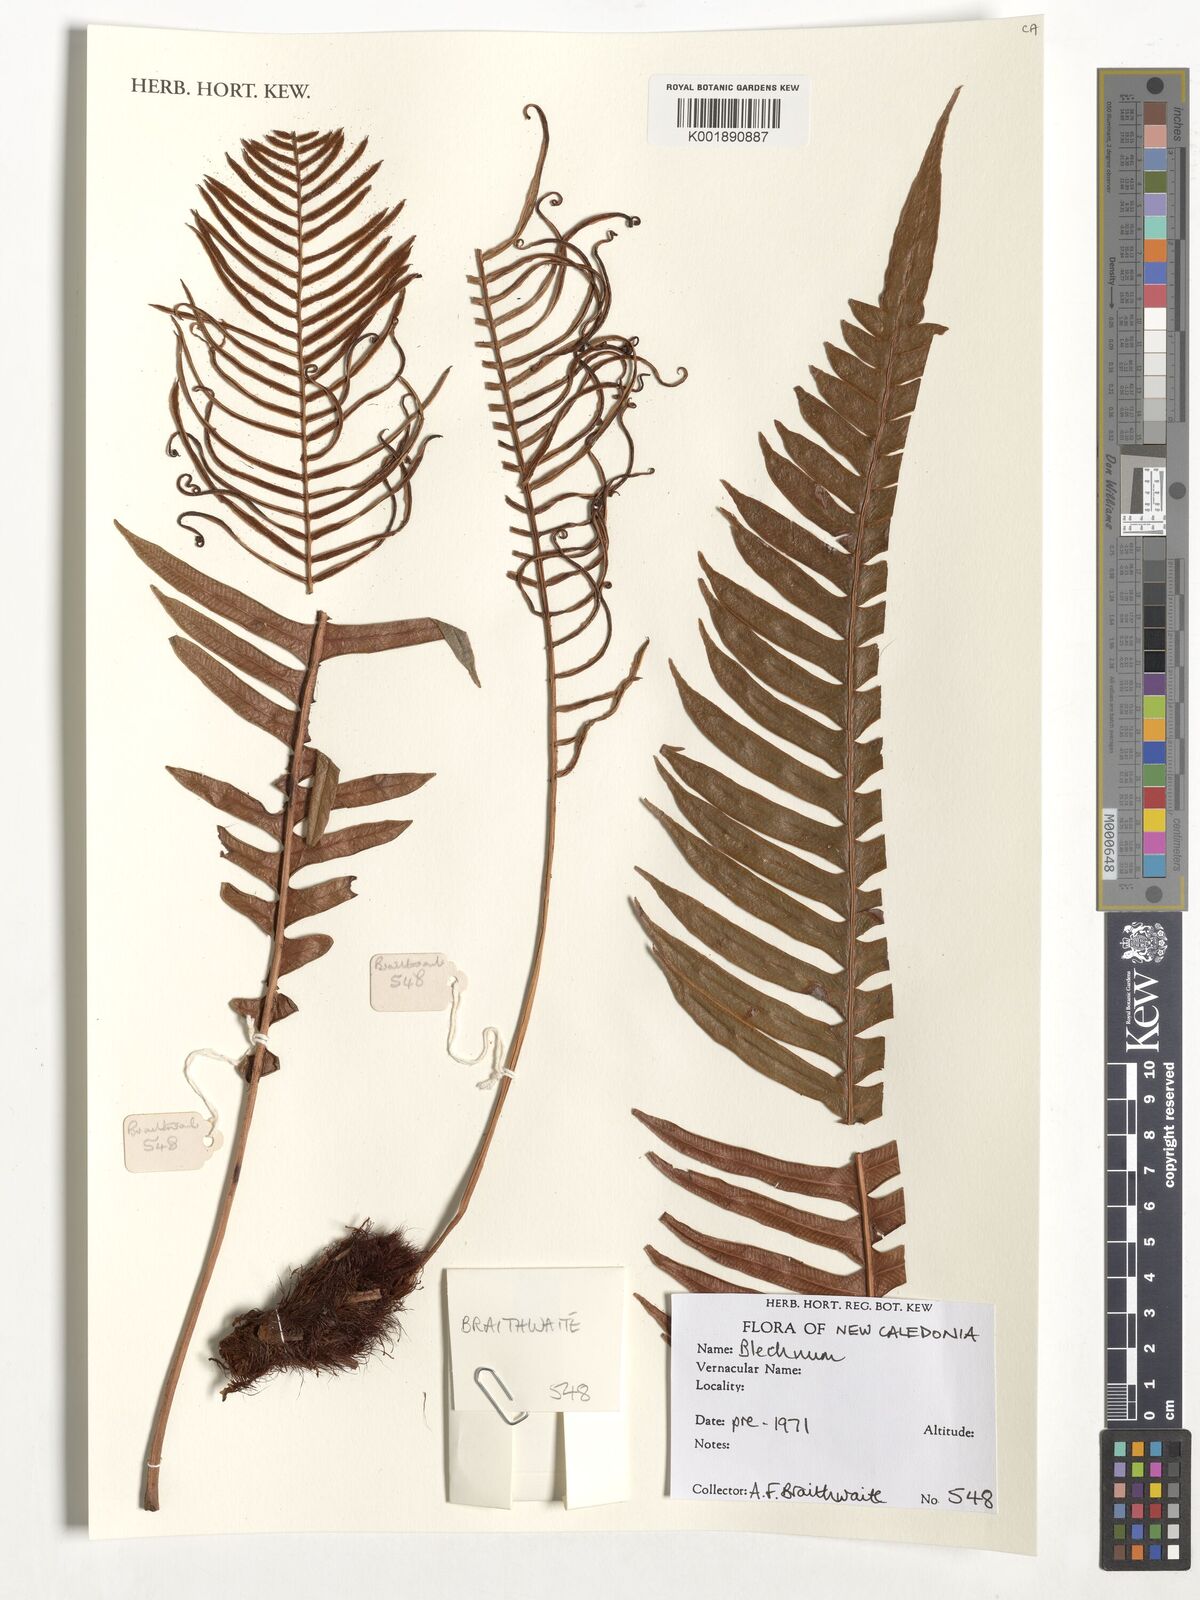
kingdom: Plantae
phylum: Tracheophyta
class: Polypodiopsida
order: Polypodiales
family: Blechnaceae
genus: Blechnum
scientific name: Blechnum
